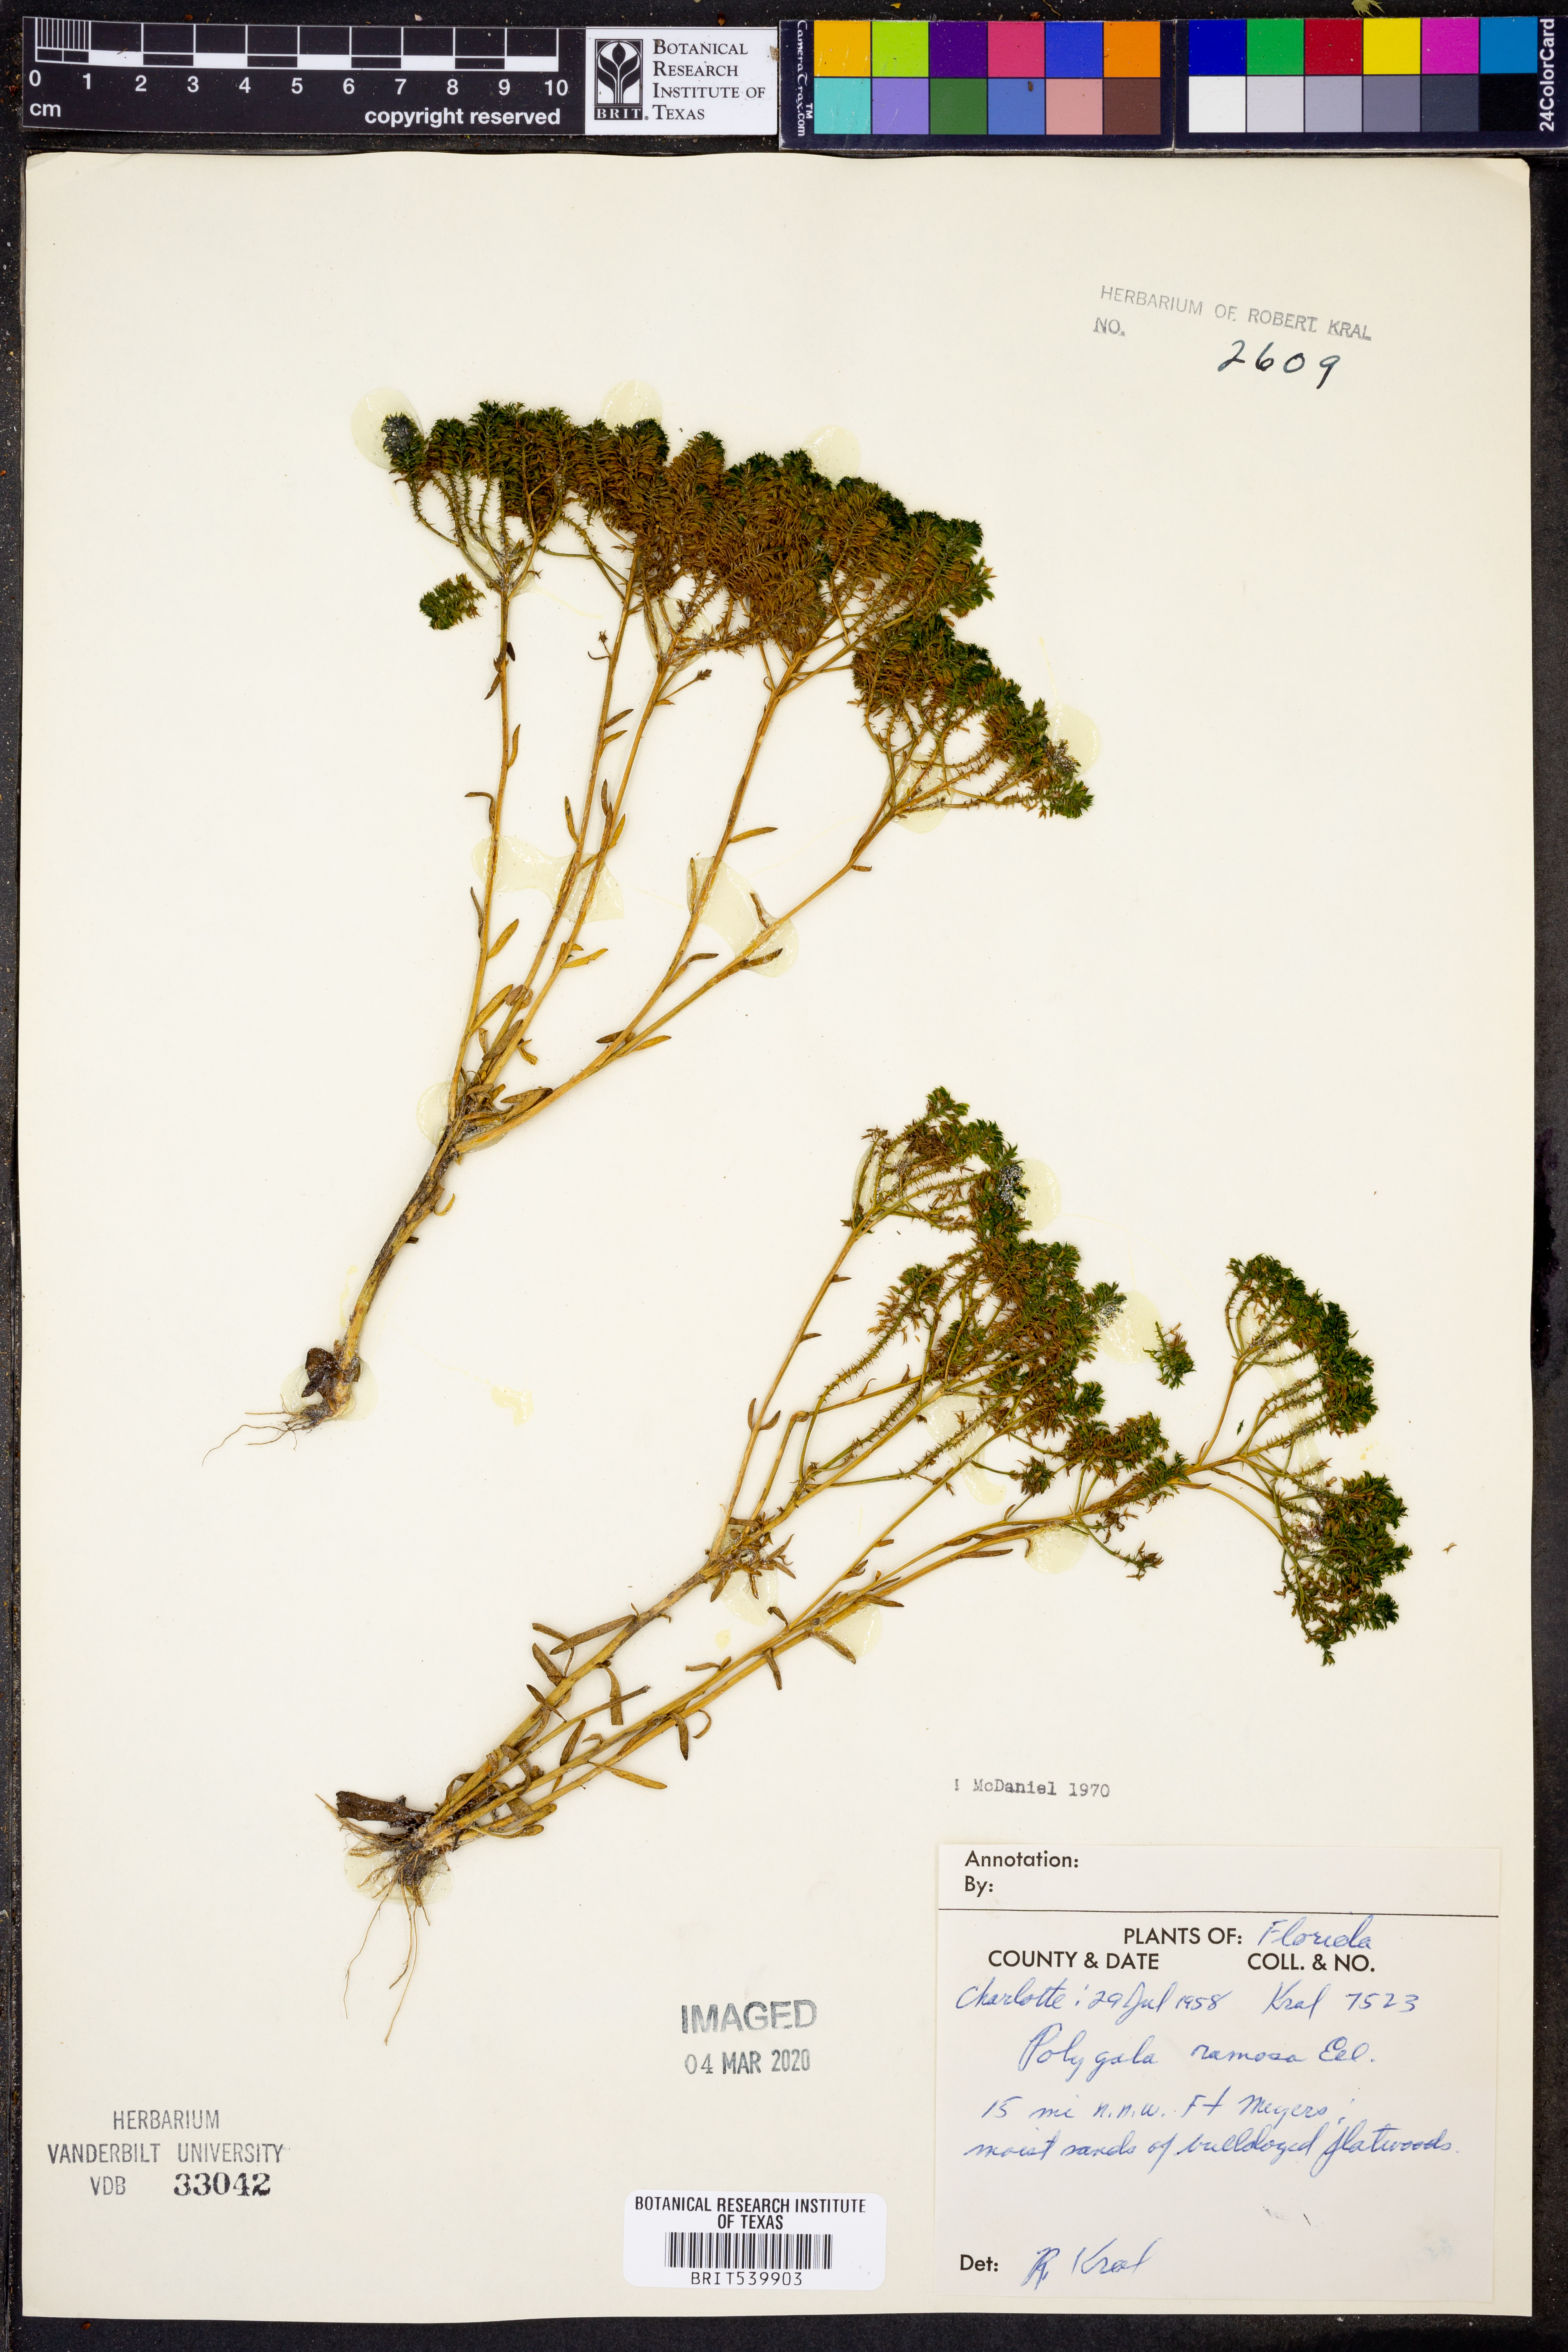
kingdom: Plantae
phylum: Tracheophyta
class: Magnoliopsida
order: Fabales
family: Polygalaceae
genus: Polygala
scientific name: Polygala ramosa
